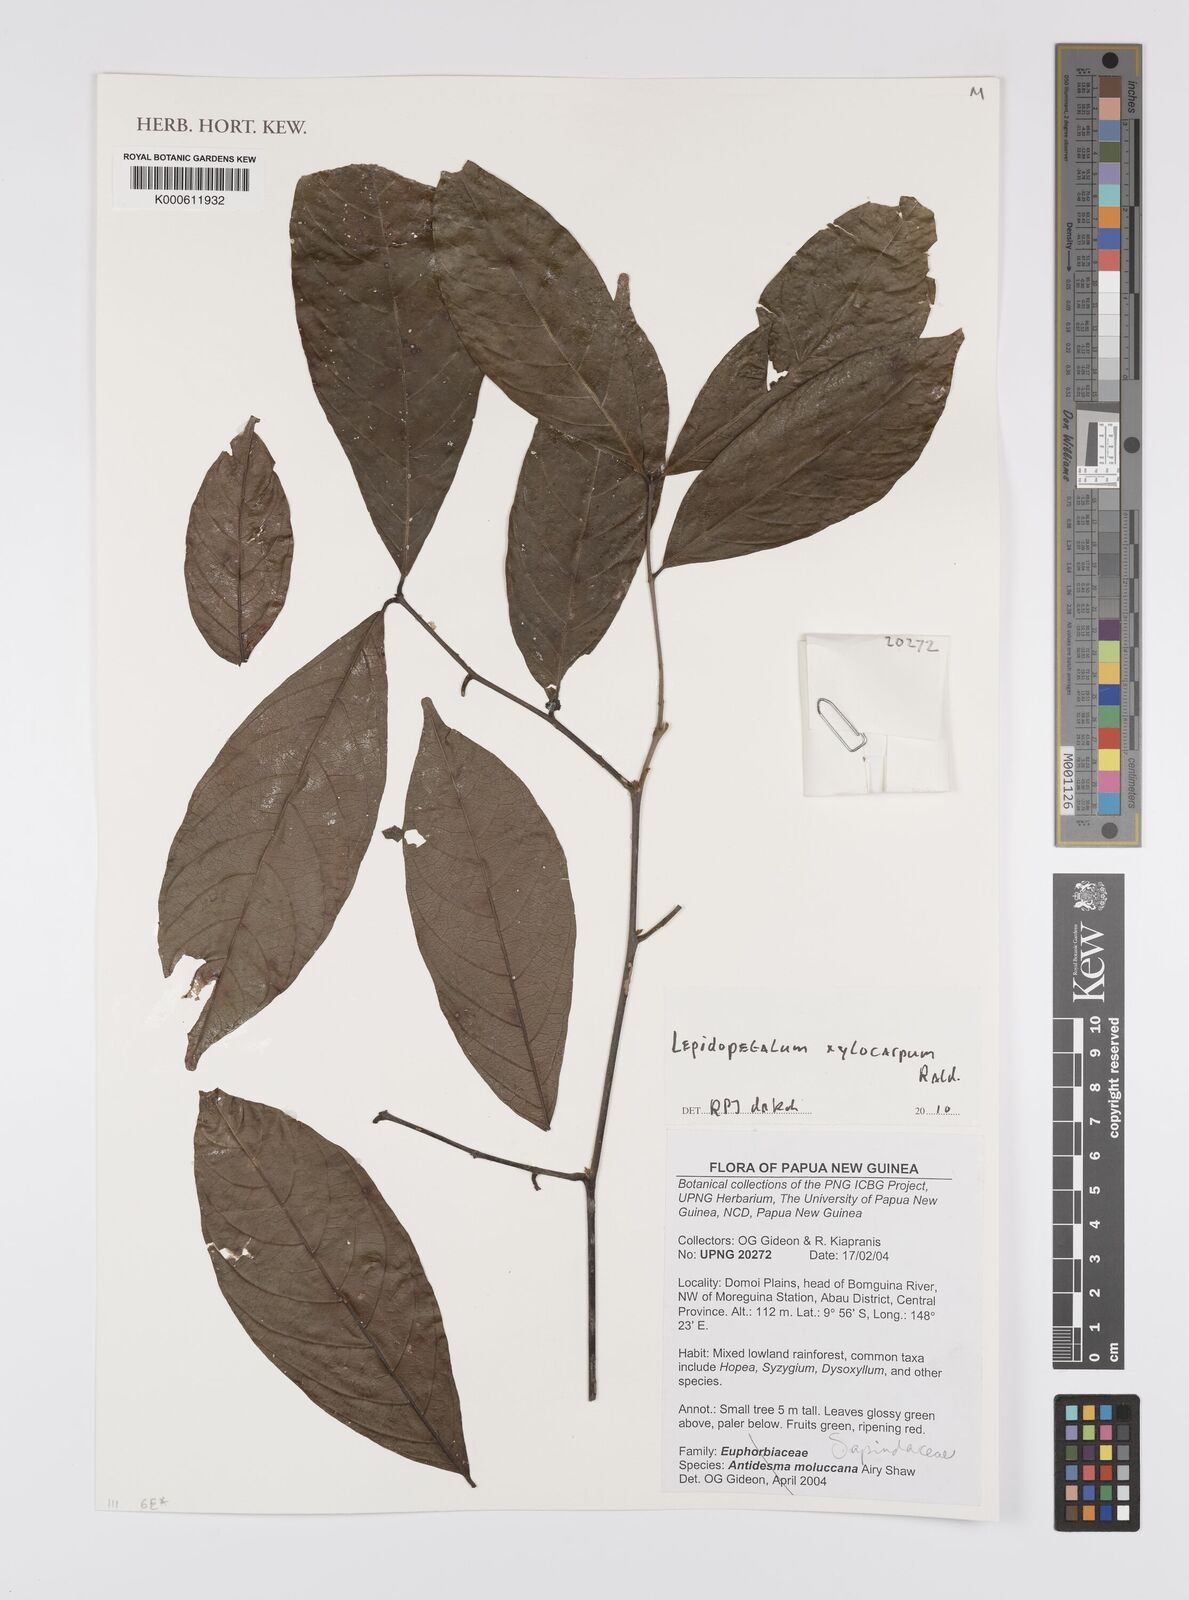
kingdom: Plantae
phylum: Tracheophyta
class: Magnoliopsida
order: Sapindales
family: Sapindaceae
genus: Lepidopetalum
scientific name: Lepidopetalum xylocarpum
